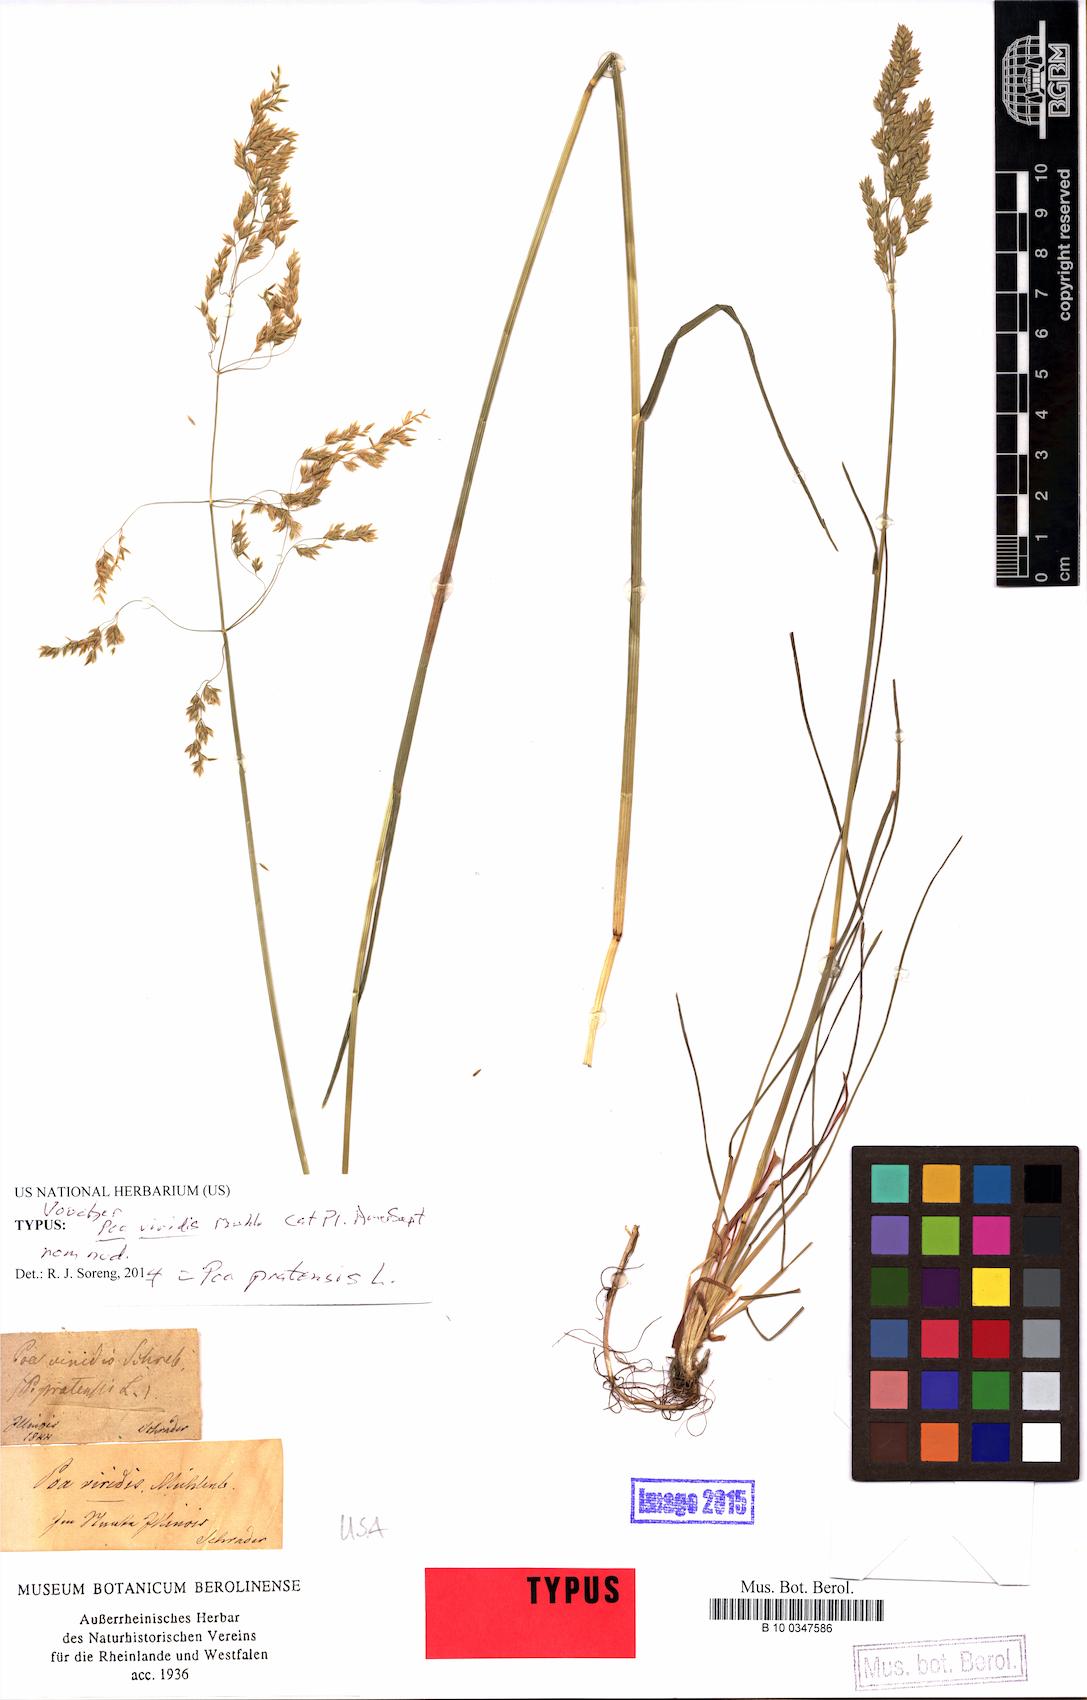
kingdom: Plantae
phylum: Tracheophyta
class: Liliopsida
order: Poales
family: Poaceae
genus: Poa
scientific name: Poa viridis
